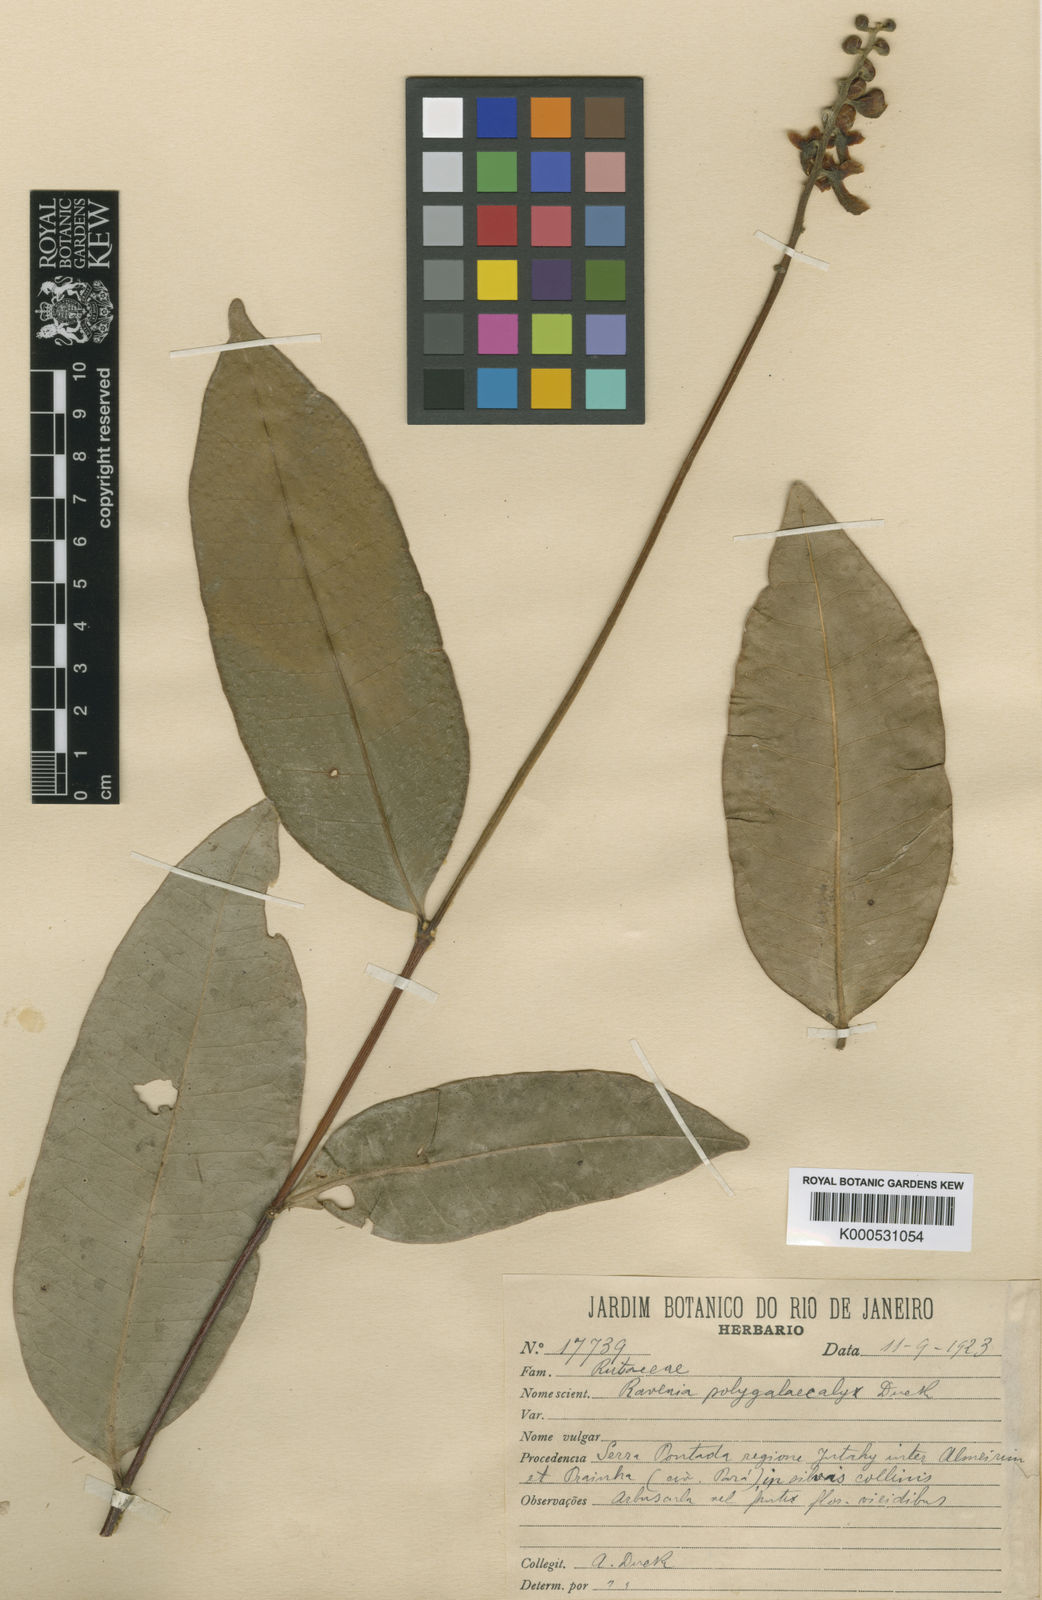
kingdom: Plantae
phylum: Tracheophyta
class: Magnoliopsida
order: Sapindales
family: Rutaceae
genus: Ravenia
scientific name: Ravenia polygalaecalyx
